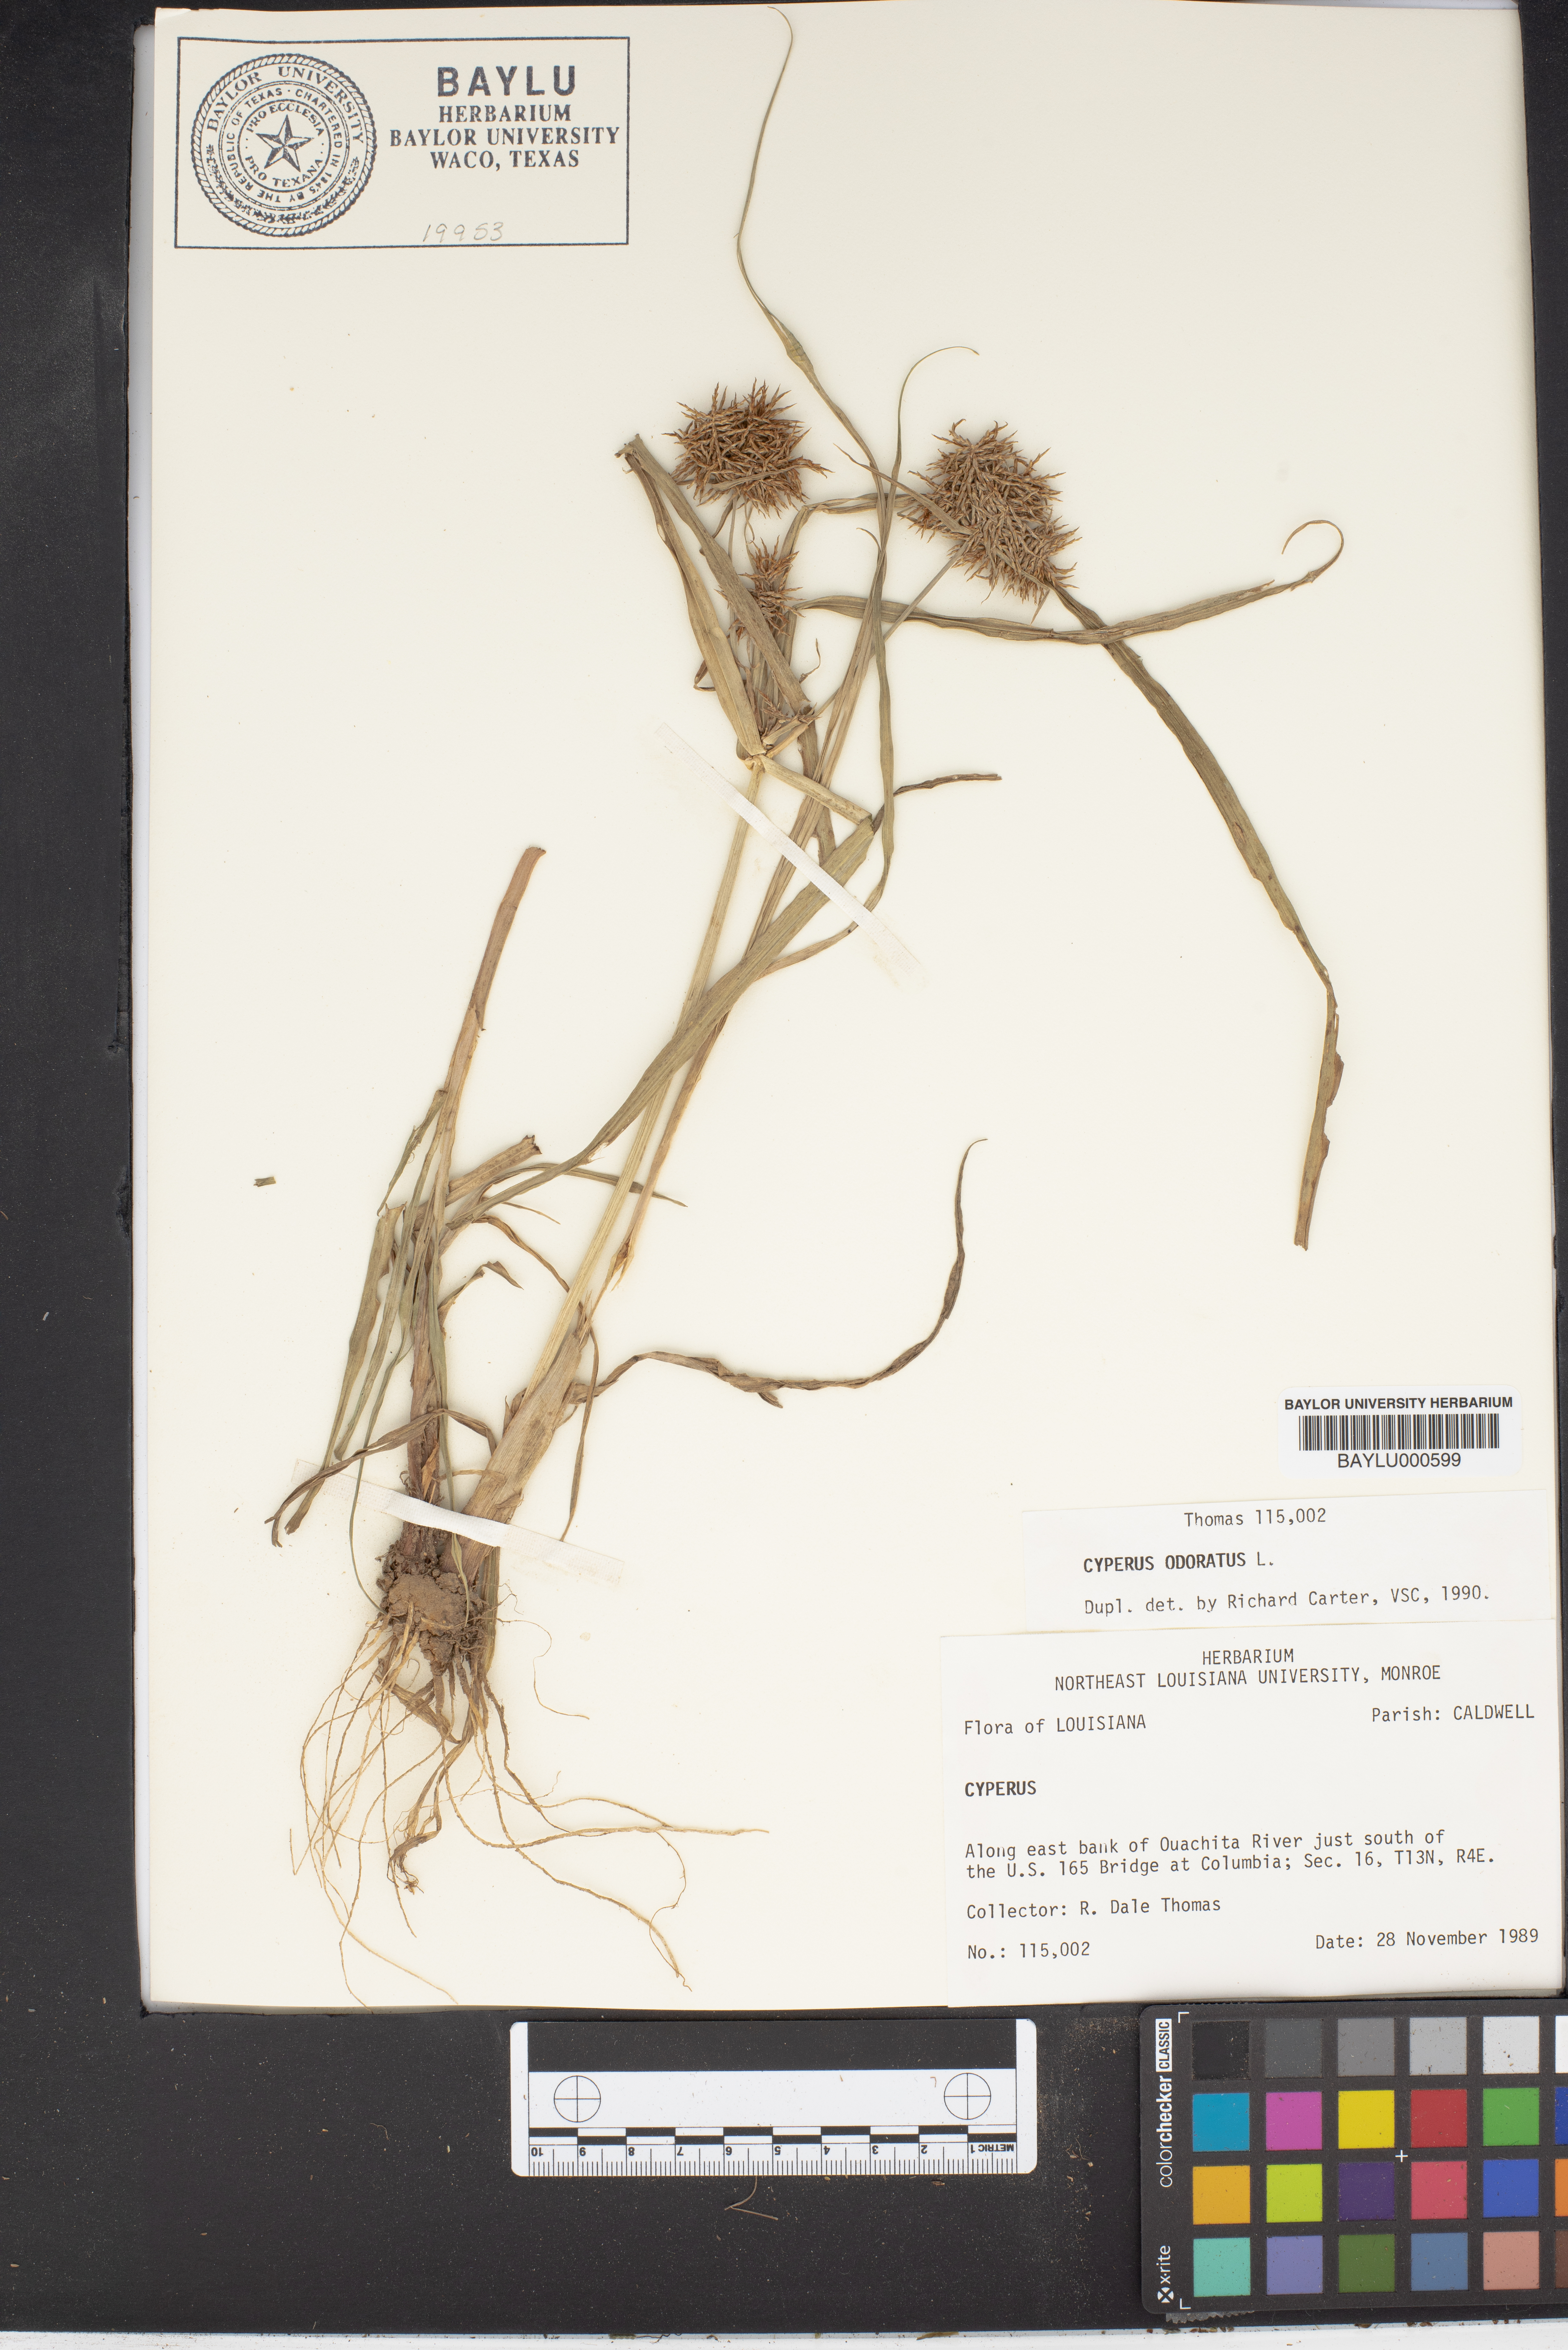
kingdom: Plantae
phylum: Tracheophyta
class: Liliopsida
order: Poales
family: Cyperaceae
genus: Cyperus
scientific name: Cyperus odoratus
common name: Fragrant flatsedge
